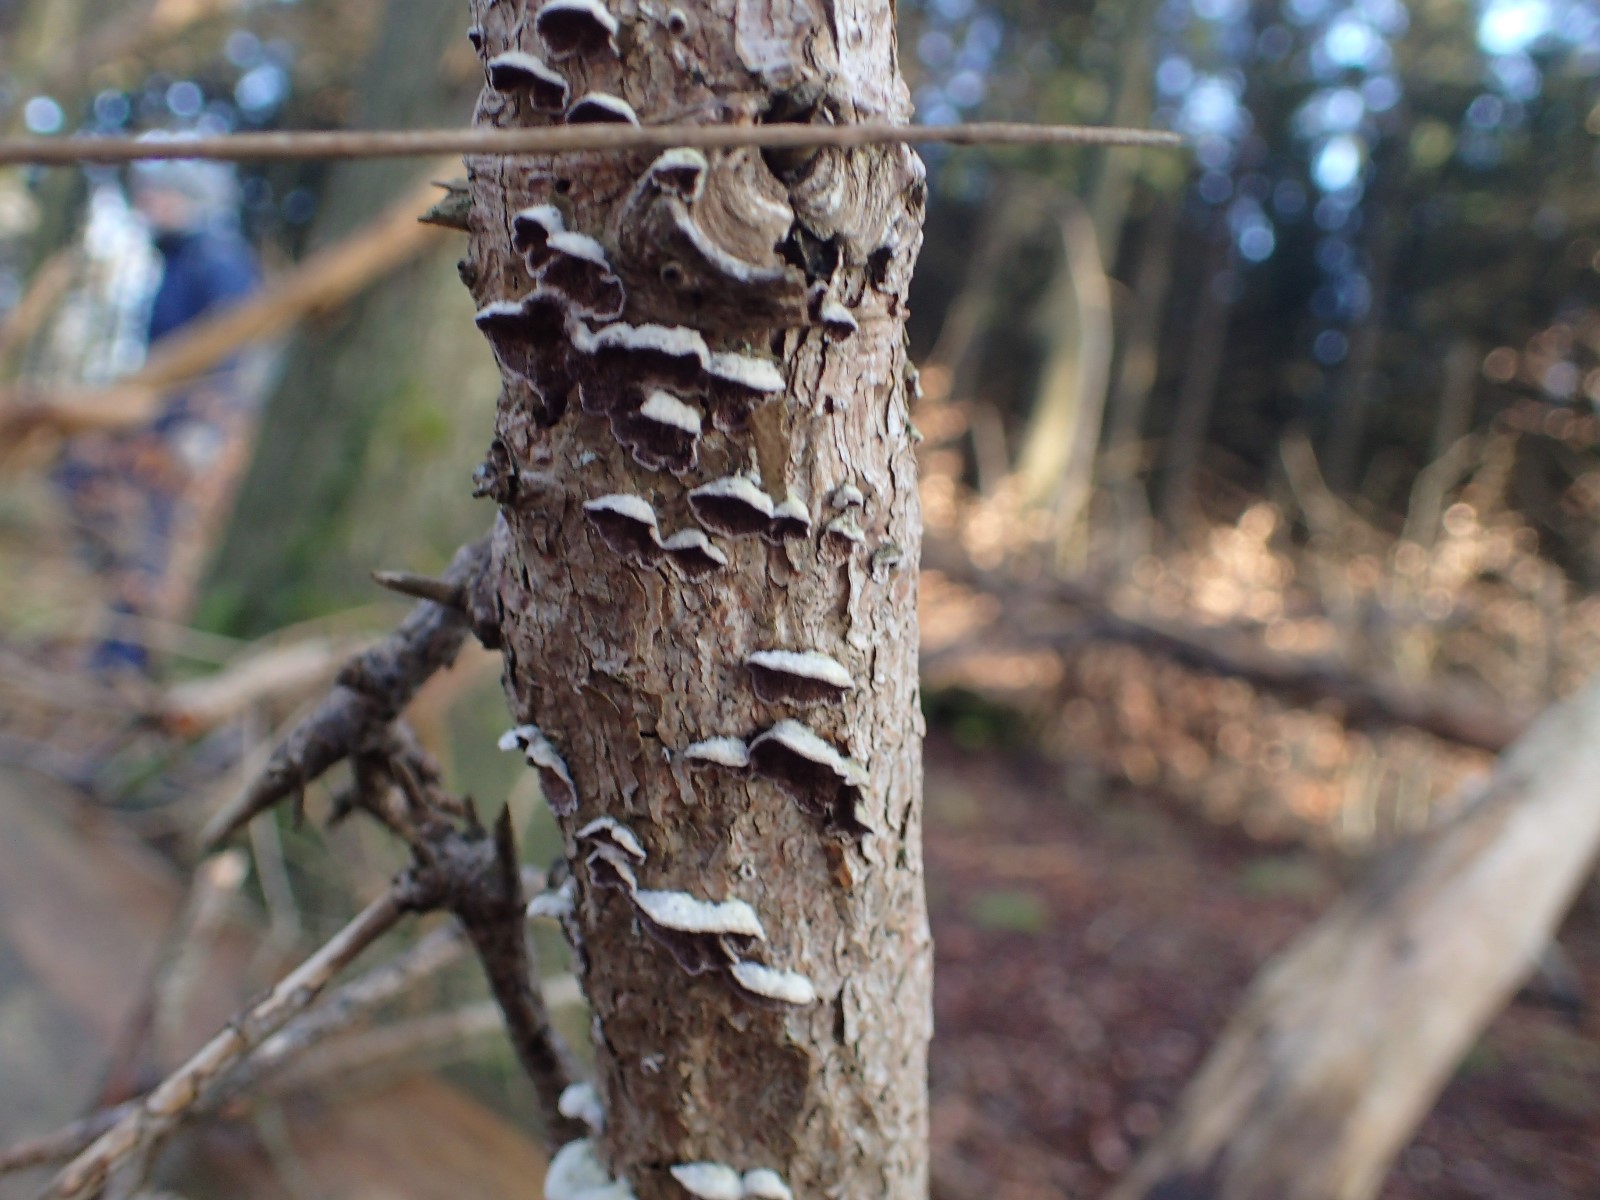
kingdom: Fungi
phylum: Basidiomycota
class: Agaricomycetes
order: Hymenochaetales
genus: Trichaptum
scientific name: Trichaptum fuscoviolaceum
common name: tandet violporesvamp
